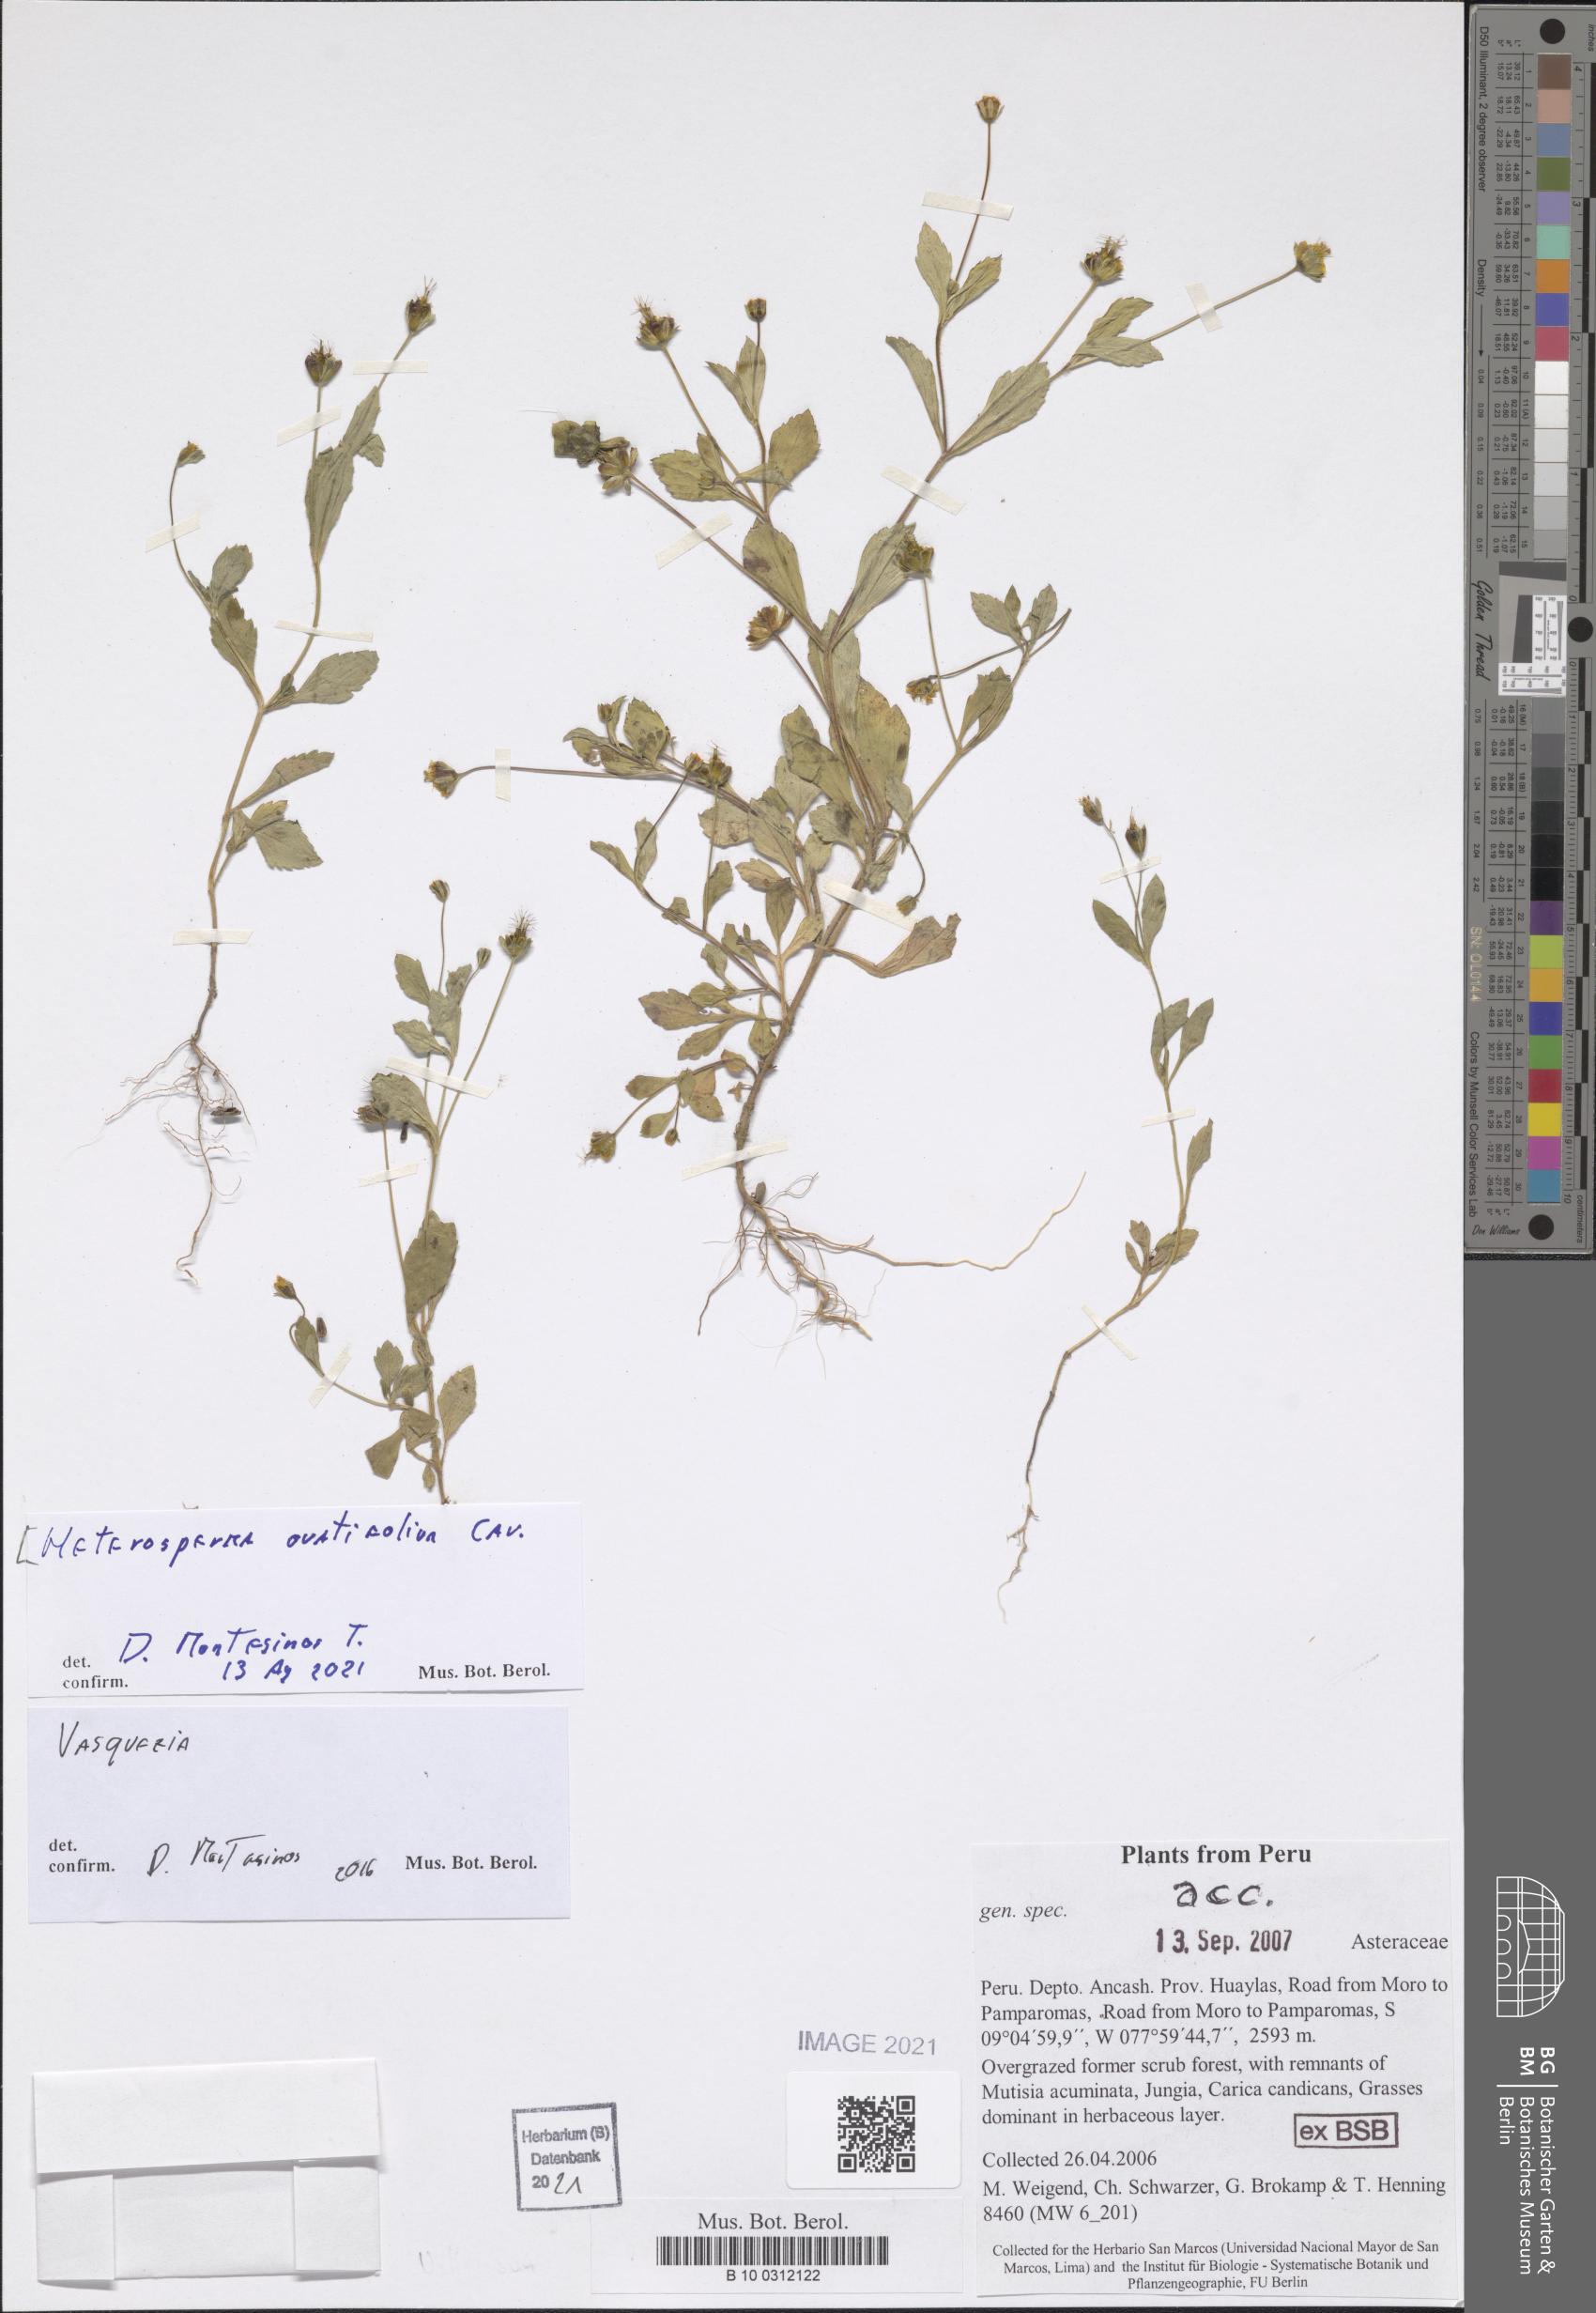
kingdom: Plantae
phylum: Tracheophyta
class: Magnoliopsida
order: Asterales
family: Asteraceae
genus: Heterosperma
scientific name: Heterosperma ovatifolium
